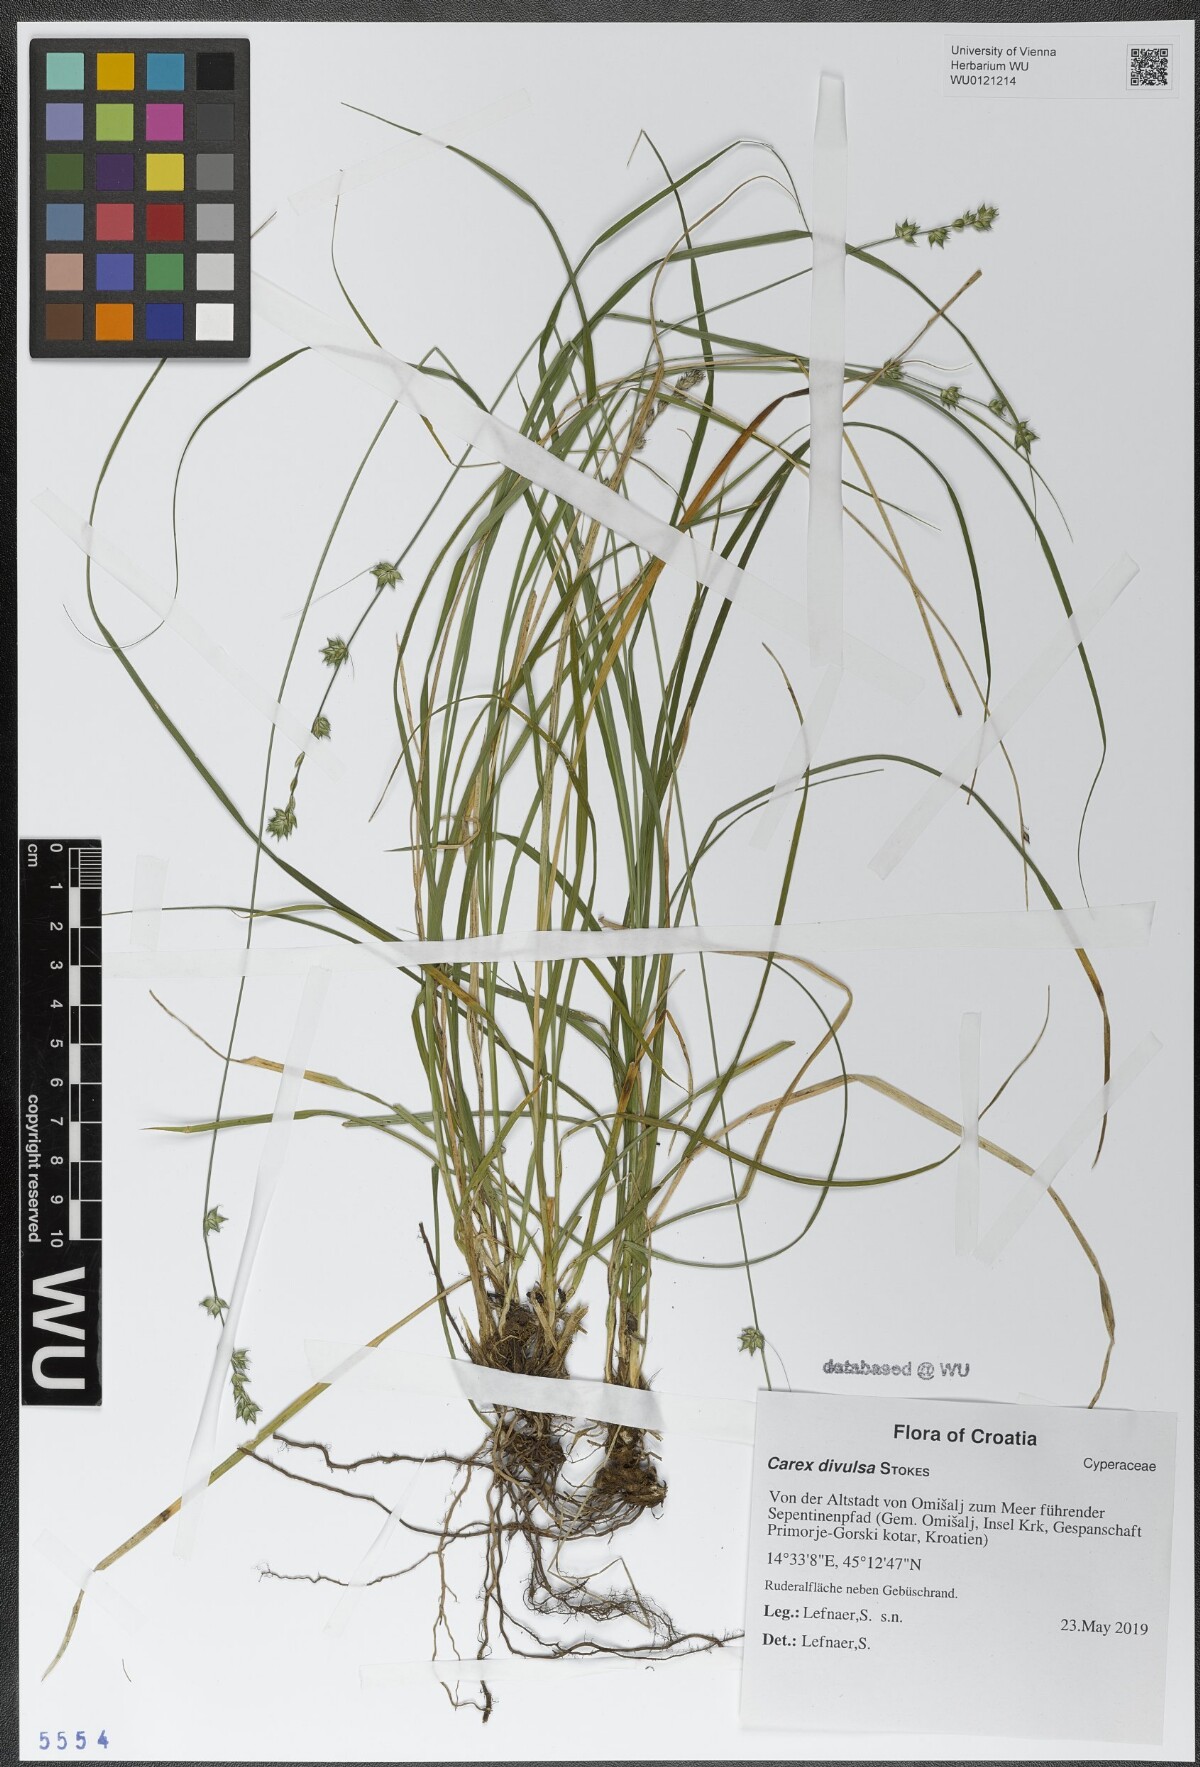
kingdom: Plantae
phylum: Tracheophyta
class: Liliopsida
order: Poales
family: Cyperaceae
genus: Carex
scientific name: Carex divulsa
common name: Grassland sedge
